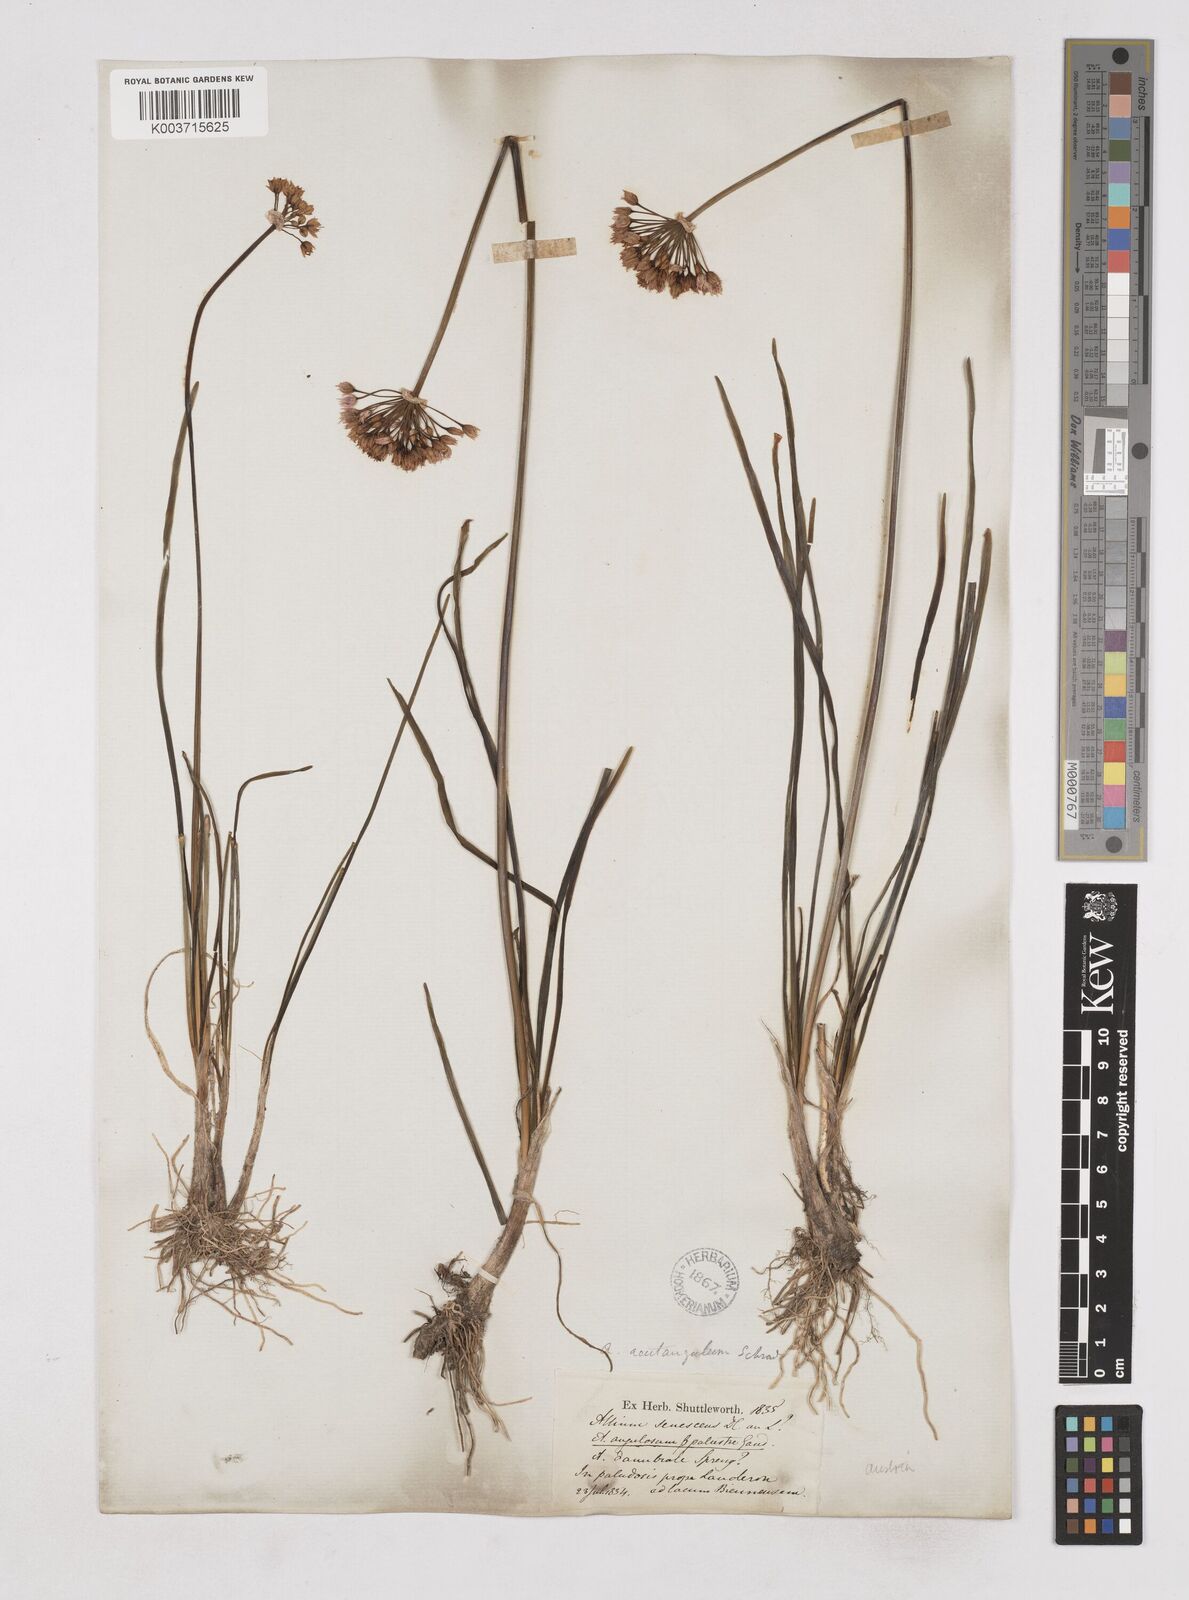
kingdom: Plantae
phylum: Tracheophyta
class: Liliopsida
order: Asparagales
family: Amaryllidaceae
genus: Allium
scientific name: Allium angulosum
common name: Mouse garlic
